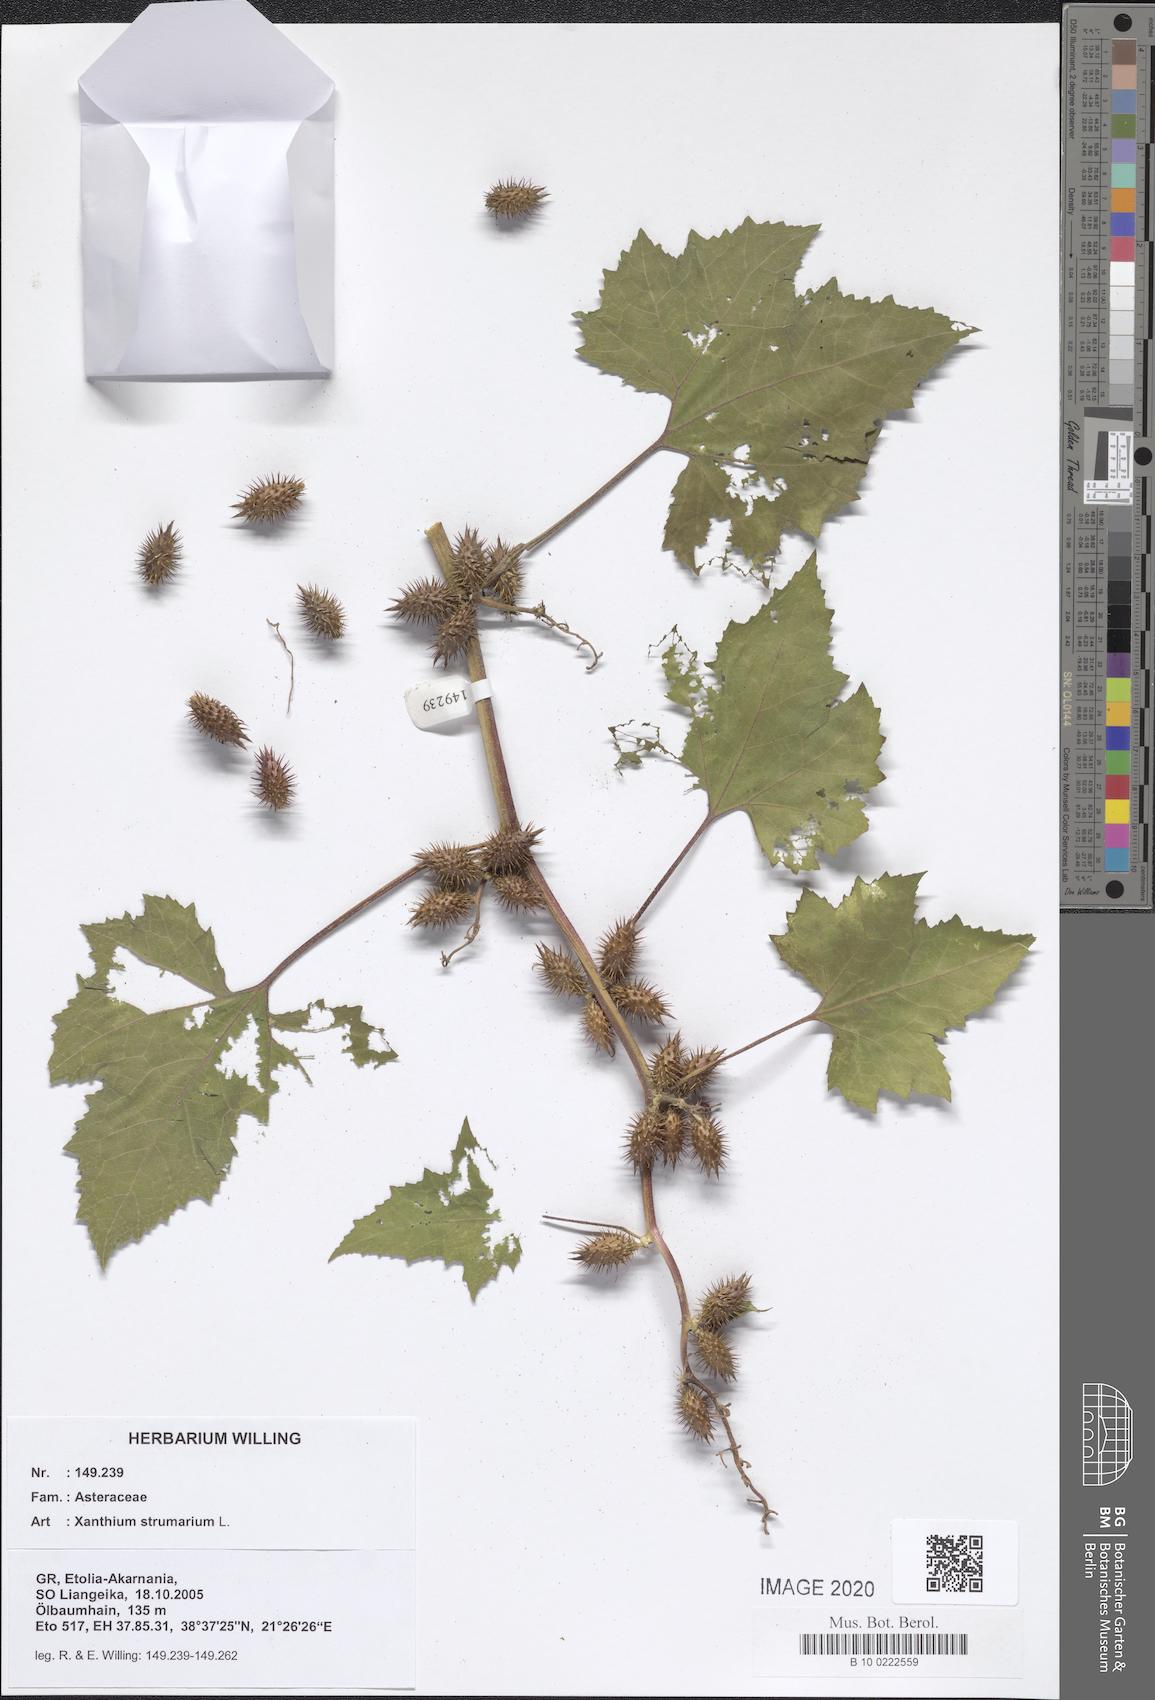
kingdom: Plantae
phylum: Tracheophyta
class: Magnoliopsida
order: Asterales
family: Asteraceae
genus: Xanthium
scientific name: Xanthium strumarium
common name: Rough cocklebur
